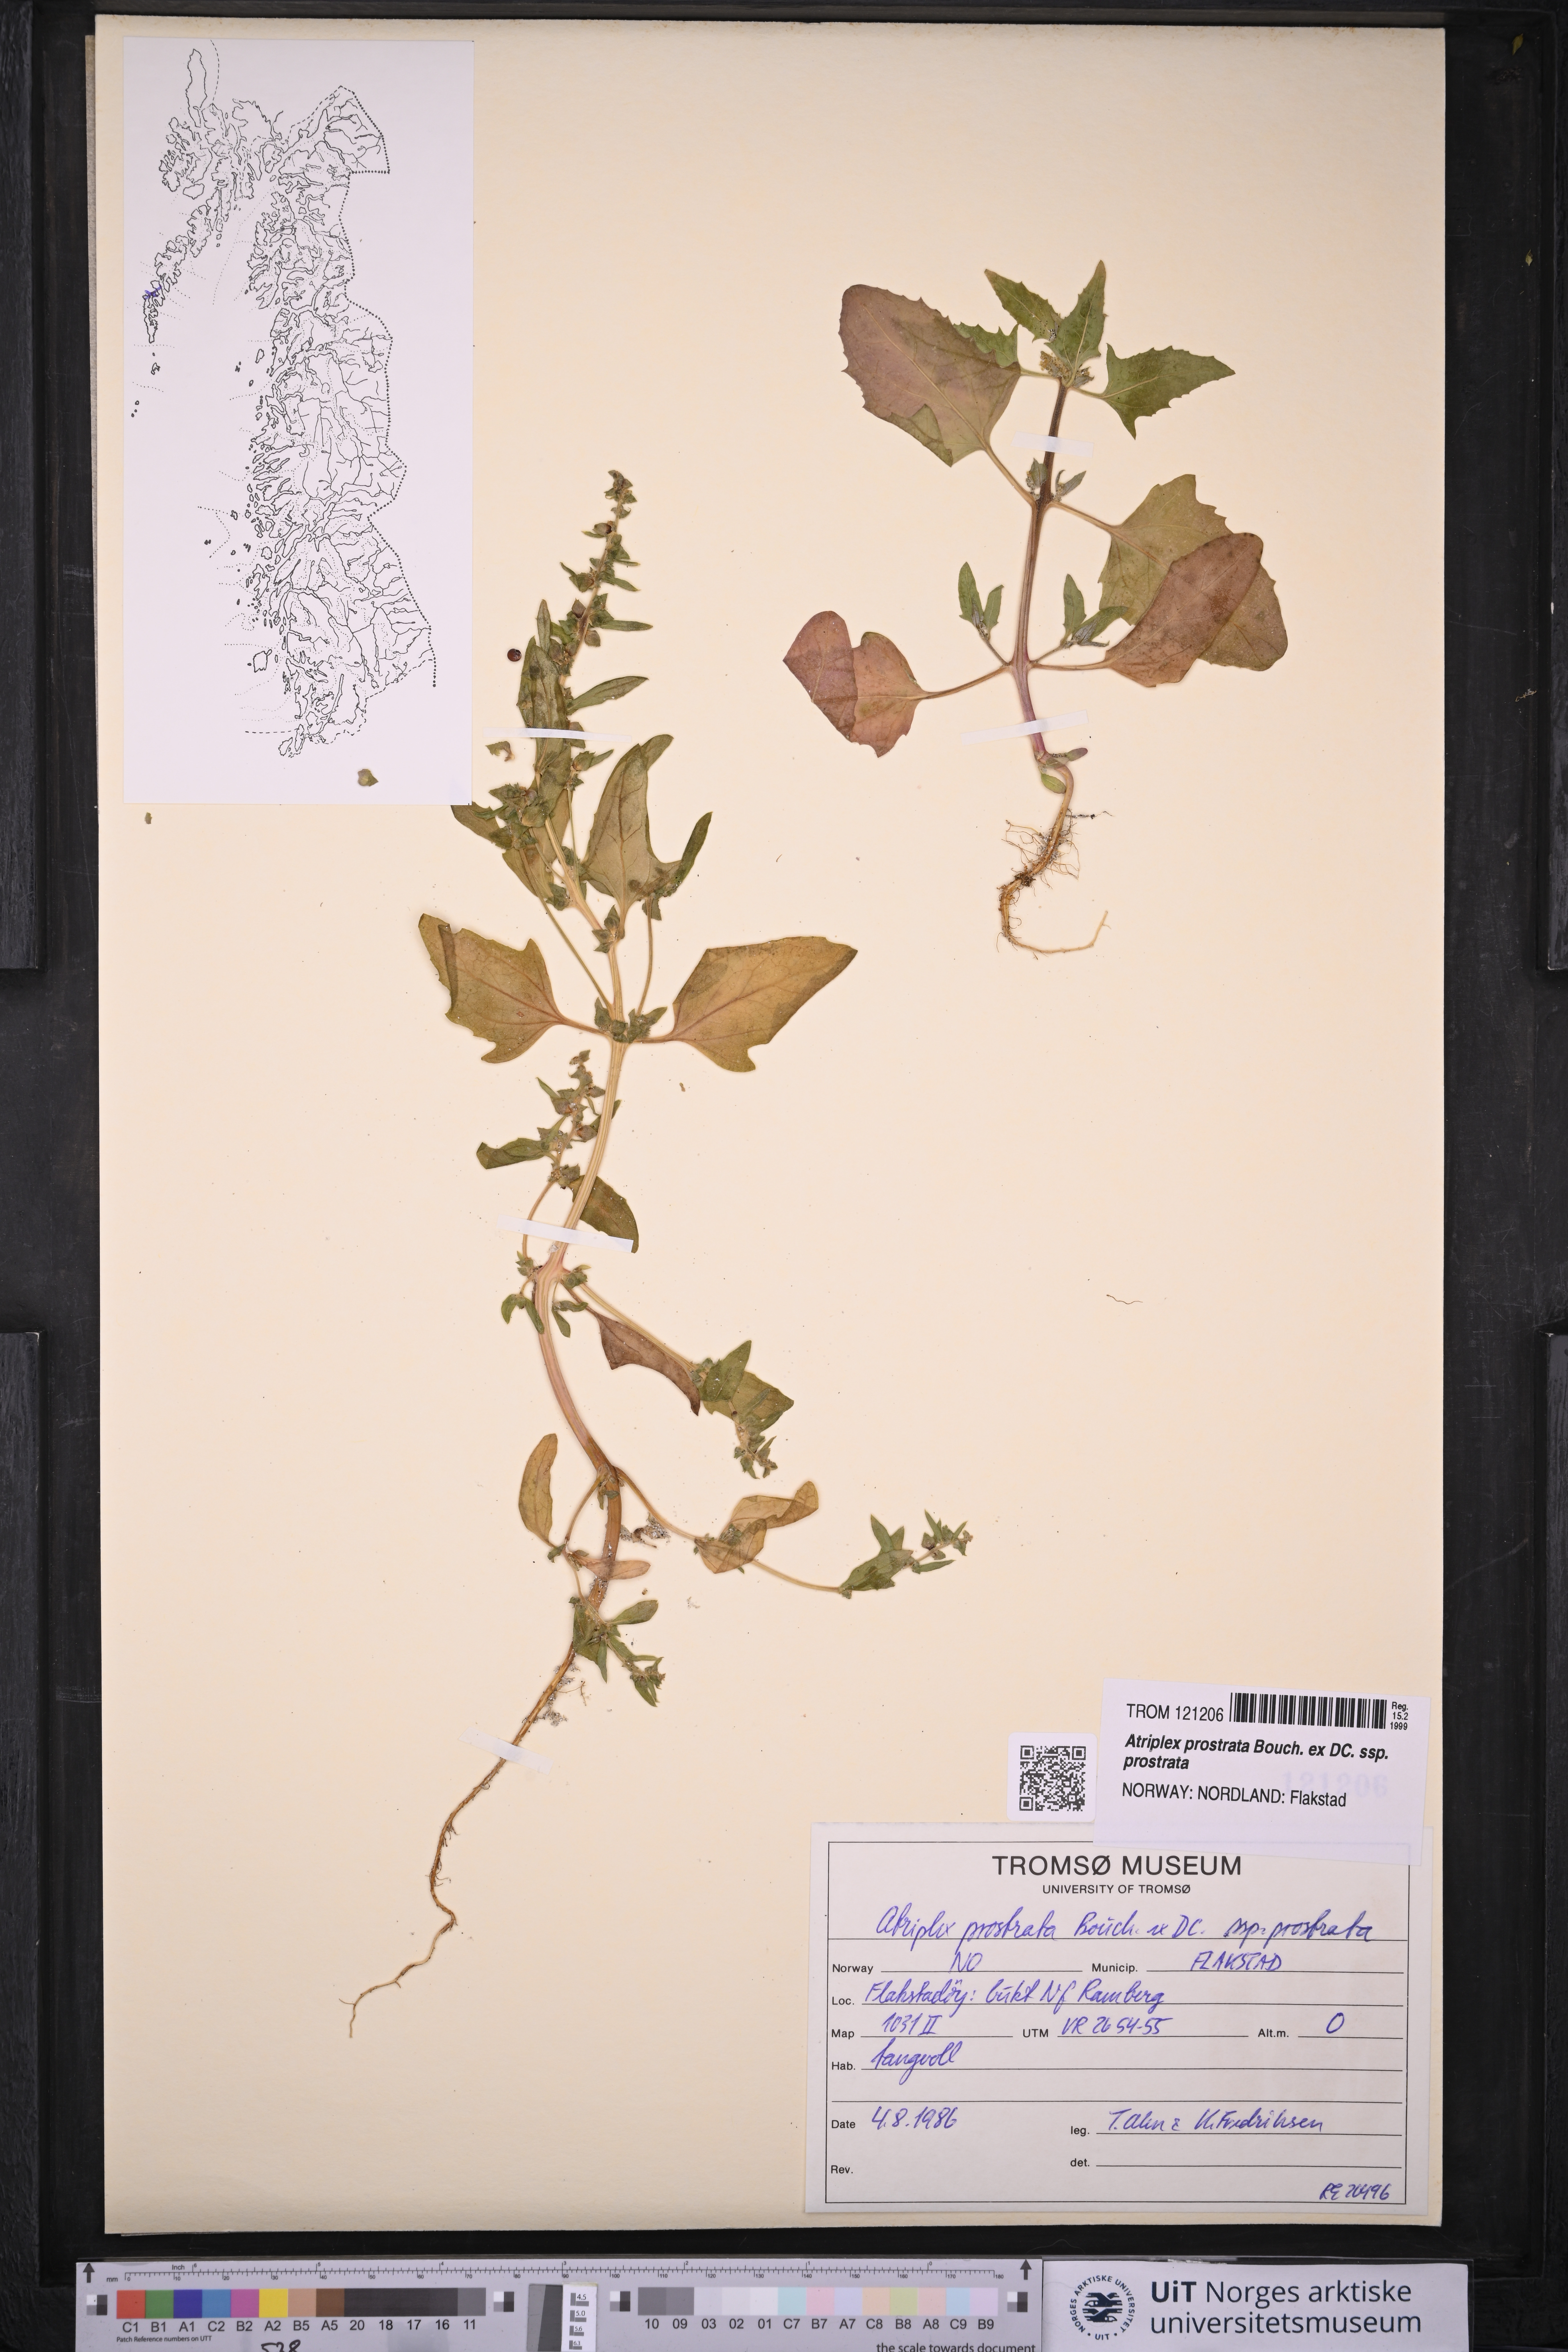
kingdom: Plantae
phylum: Tracheophyta
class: Magnoliopsida
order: Caryophyllales
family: Amaranthaceae
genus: Atriplex
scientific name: Atriplex prostrata
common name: Spear-leaved orache
